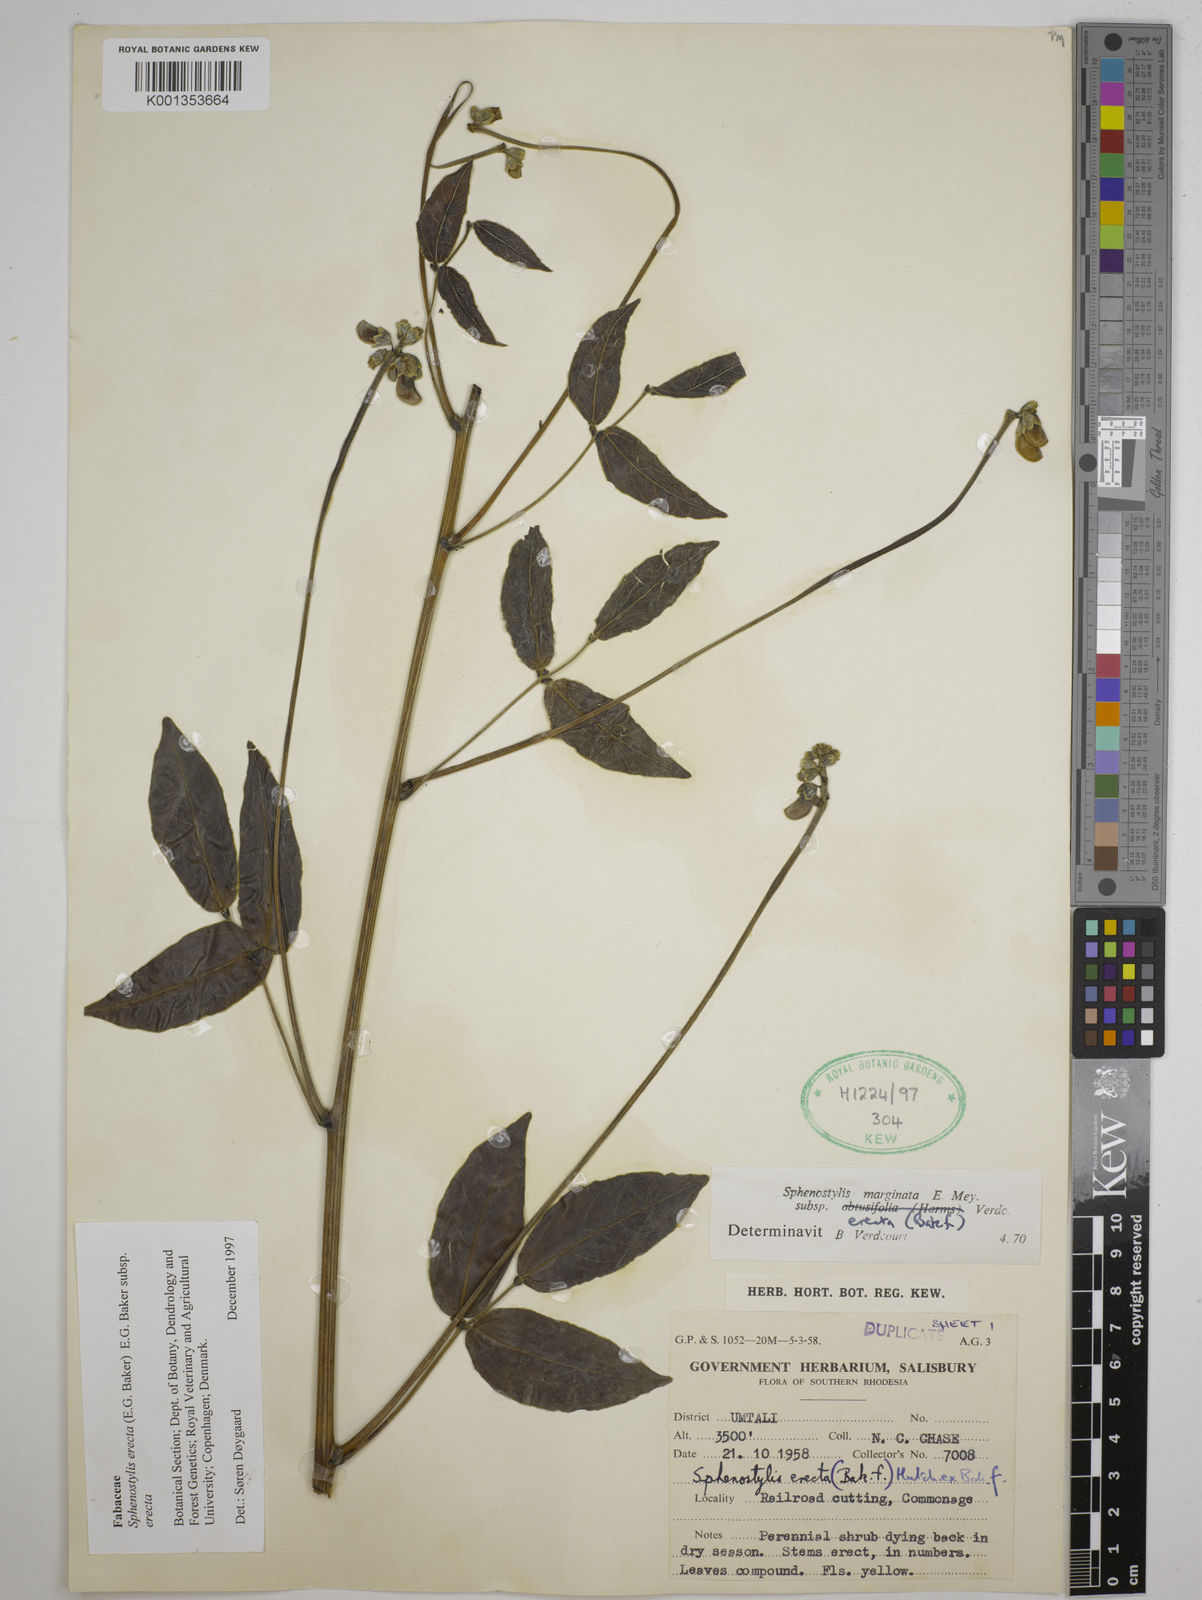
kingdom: Plantae
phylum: Tracheophyta
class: Magnoliopsida
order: Fabales
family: Fabaceae
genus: Sphenostylis
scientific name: Sphenostylis erecta
